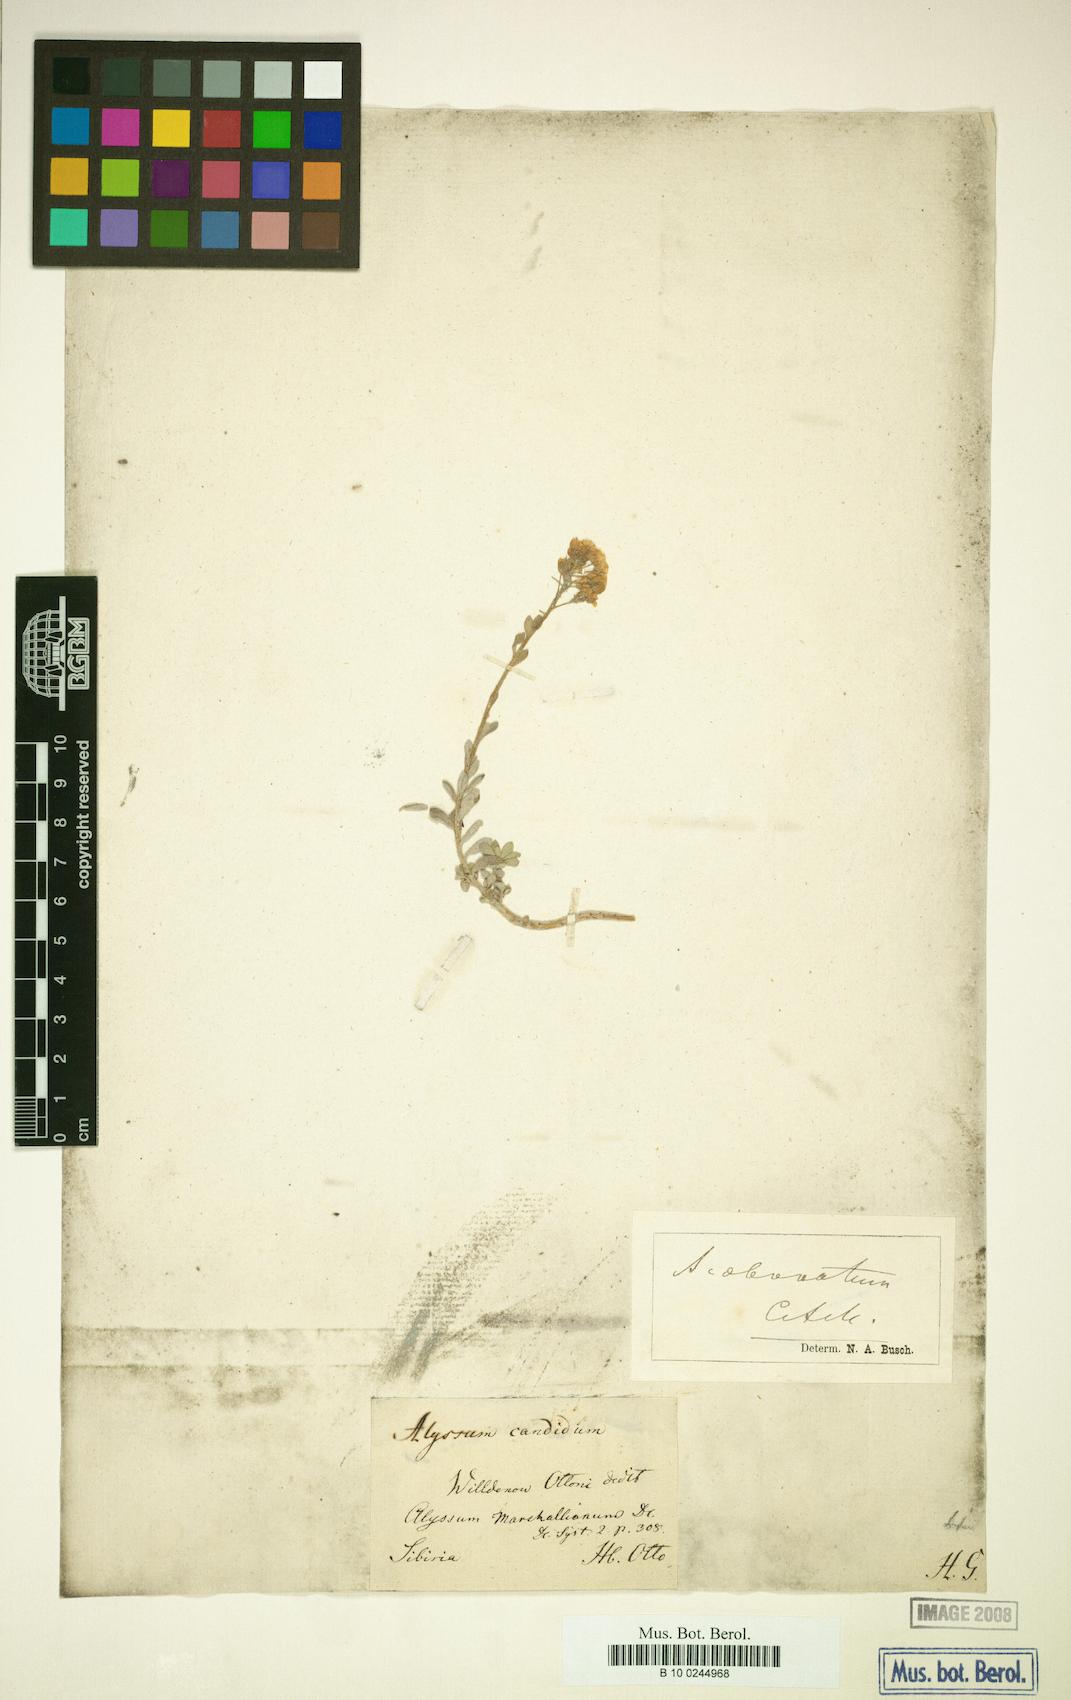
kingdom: Plantae
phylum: Tracheophyta
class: Magnoliopsida
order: Brassicales
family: Brassicaceae
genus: Odontarrhena
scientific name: Odontarrhena obovata
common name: American alyssum
